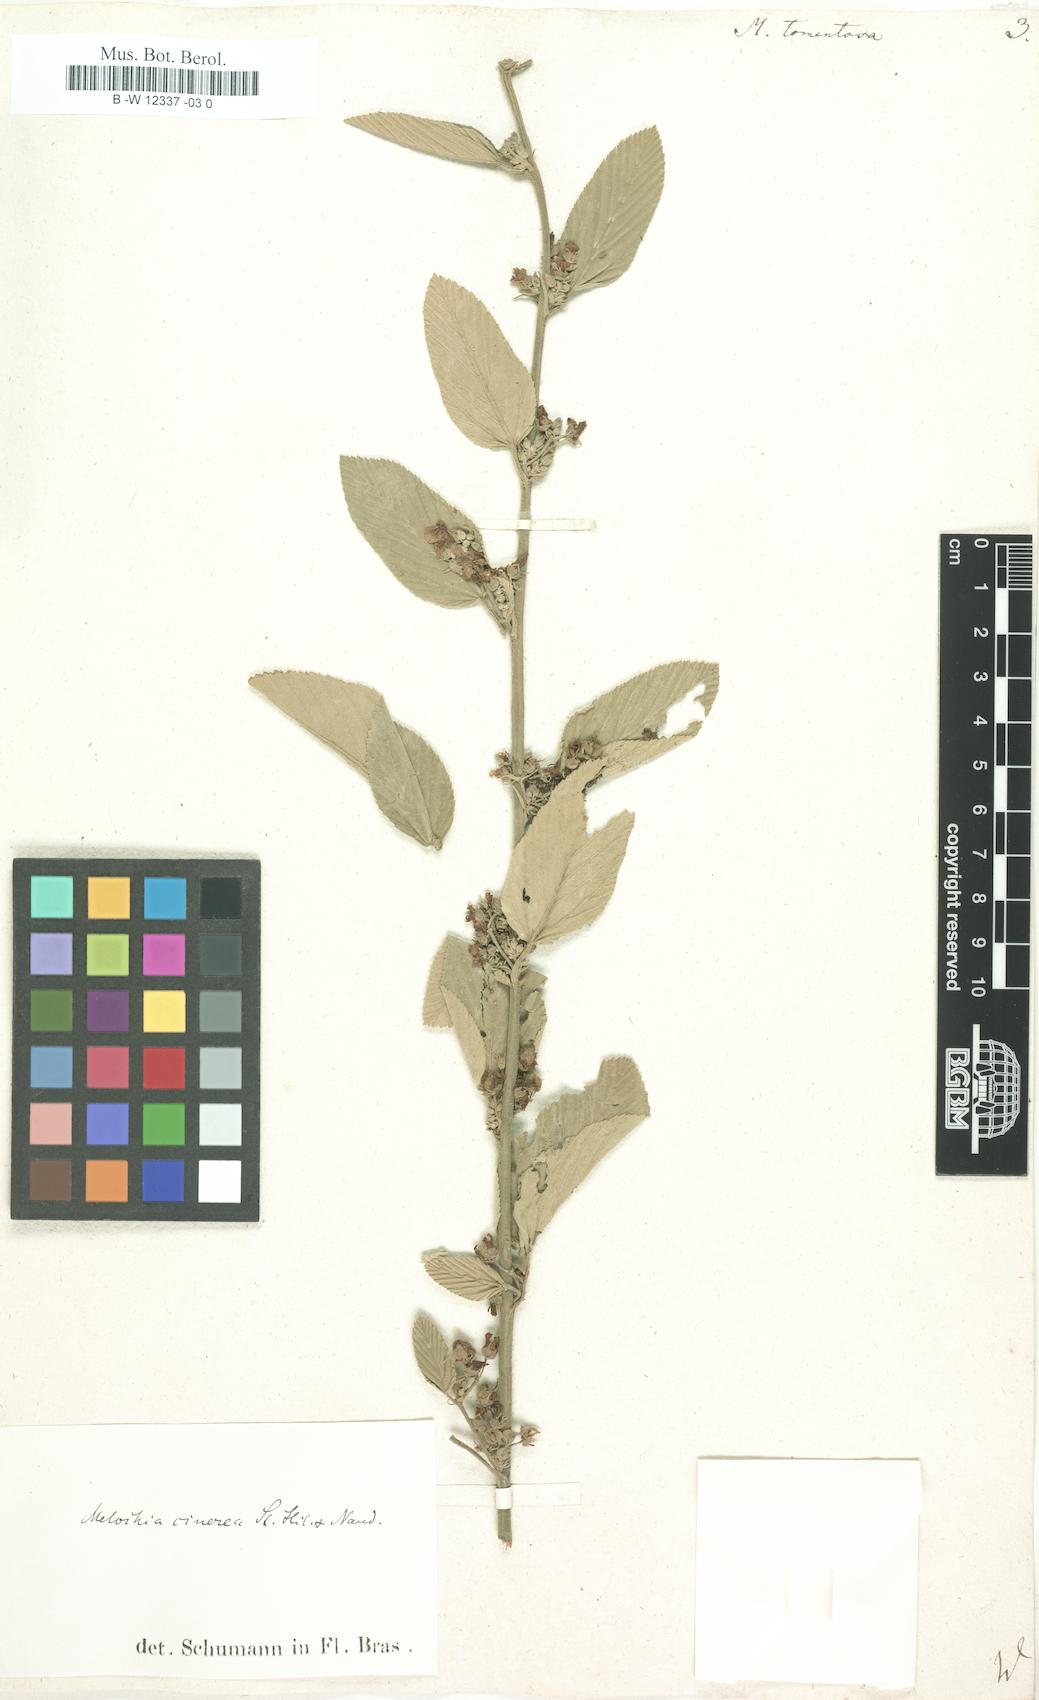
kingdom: Plantae
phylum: Tracheophyta
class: Magnoliopsida
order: Malvales
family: Malvaceae
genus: Melochia
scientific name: Melochia tomentosa
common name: Black torch
